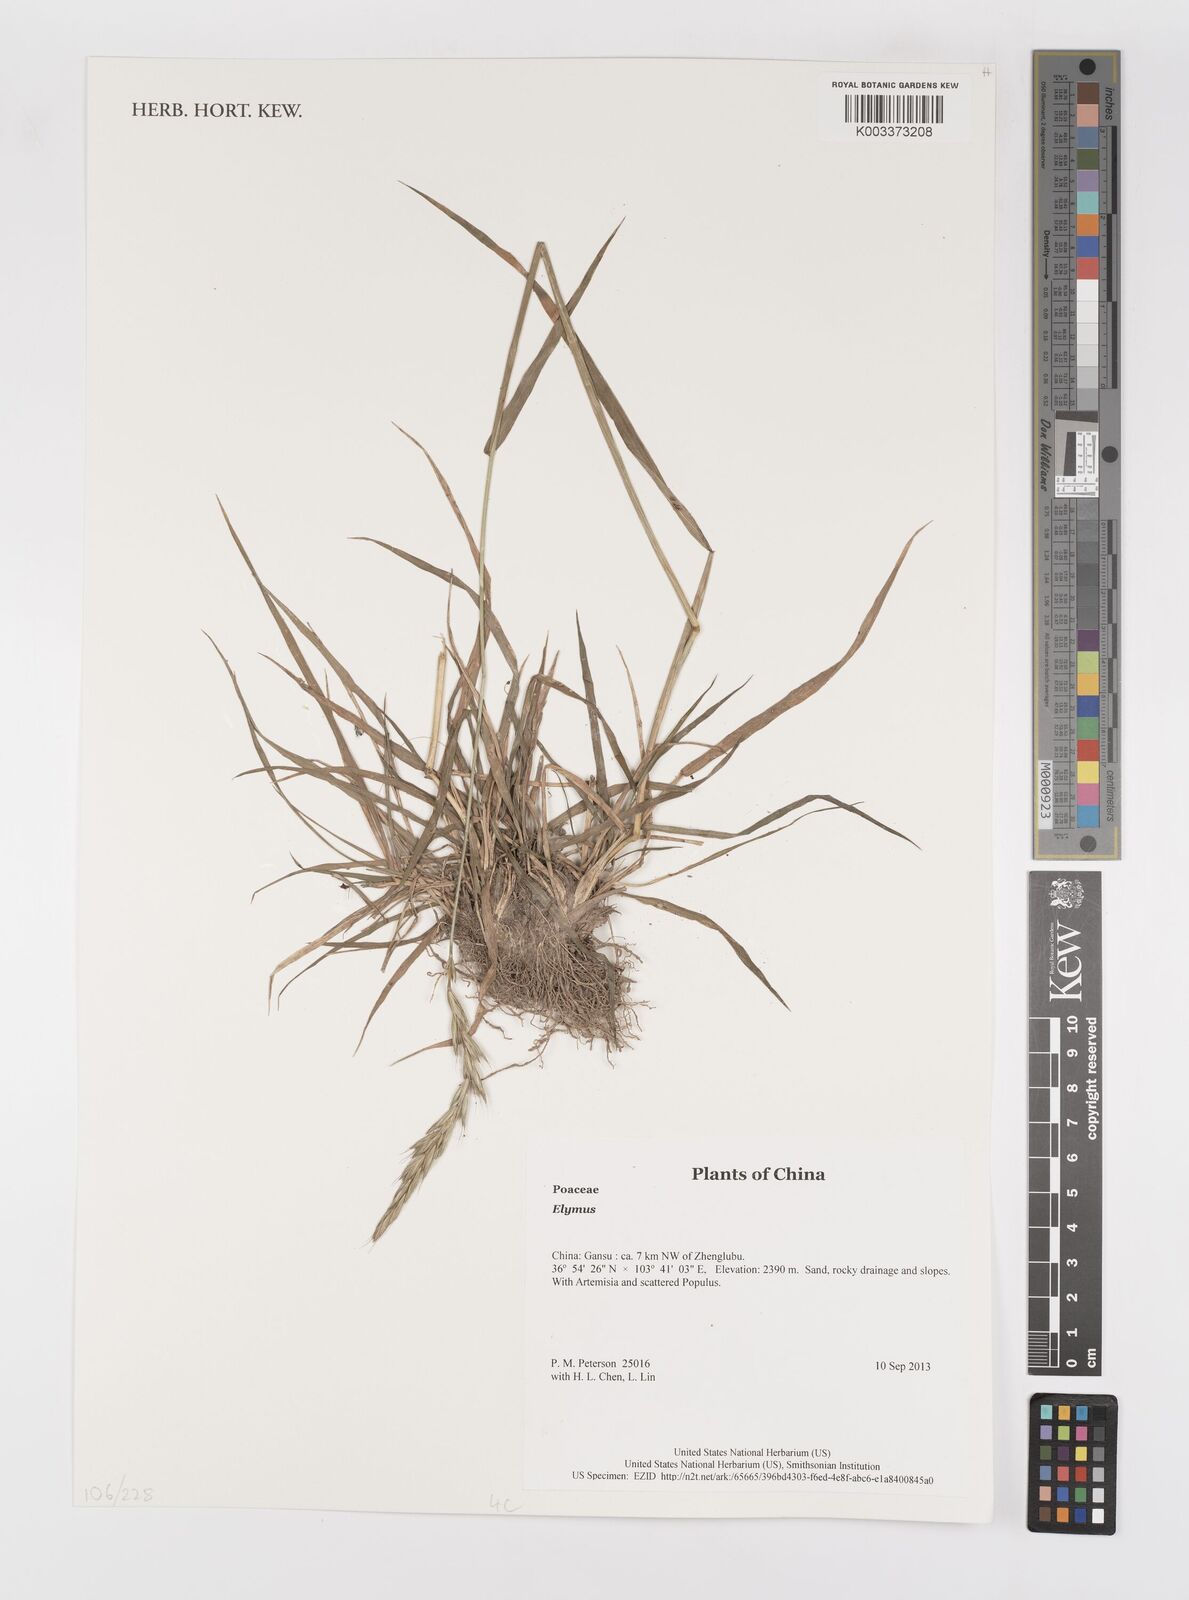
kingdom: Plantae
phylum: Tracheophyta
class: Liliopsida
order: Poales
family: Poaceae
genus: Elymus
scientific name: Elymus
